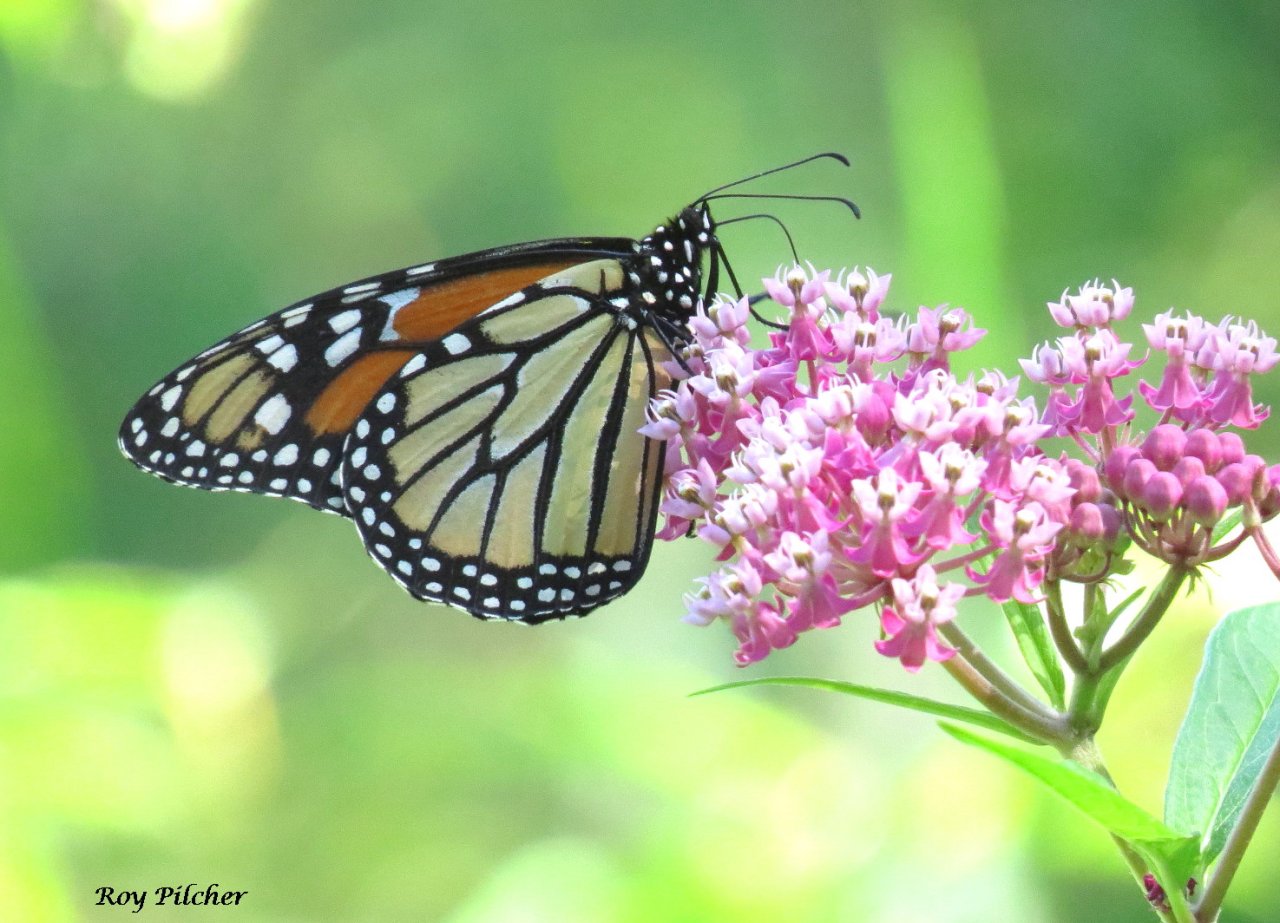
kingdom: Animalia
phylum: Arthropoda
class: Insecta
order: Lepidoptera
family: Nymphalidae
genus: Danaus
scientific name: Danaus plexippus
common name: Monarch
